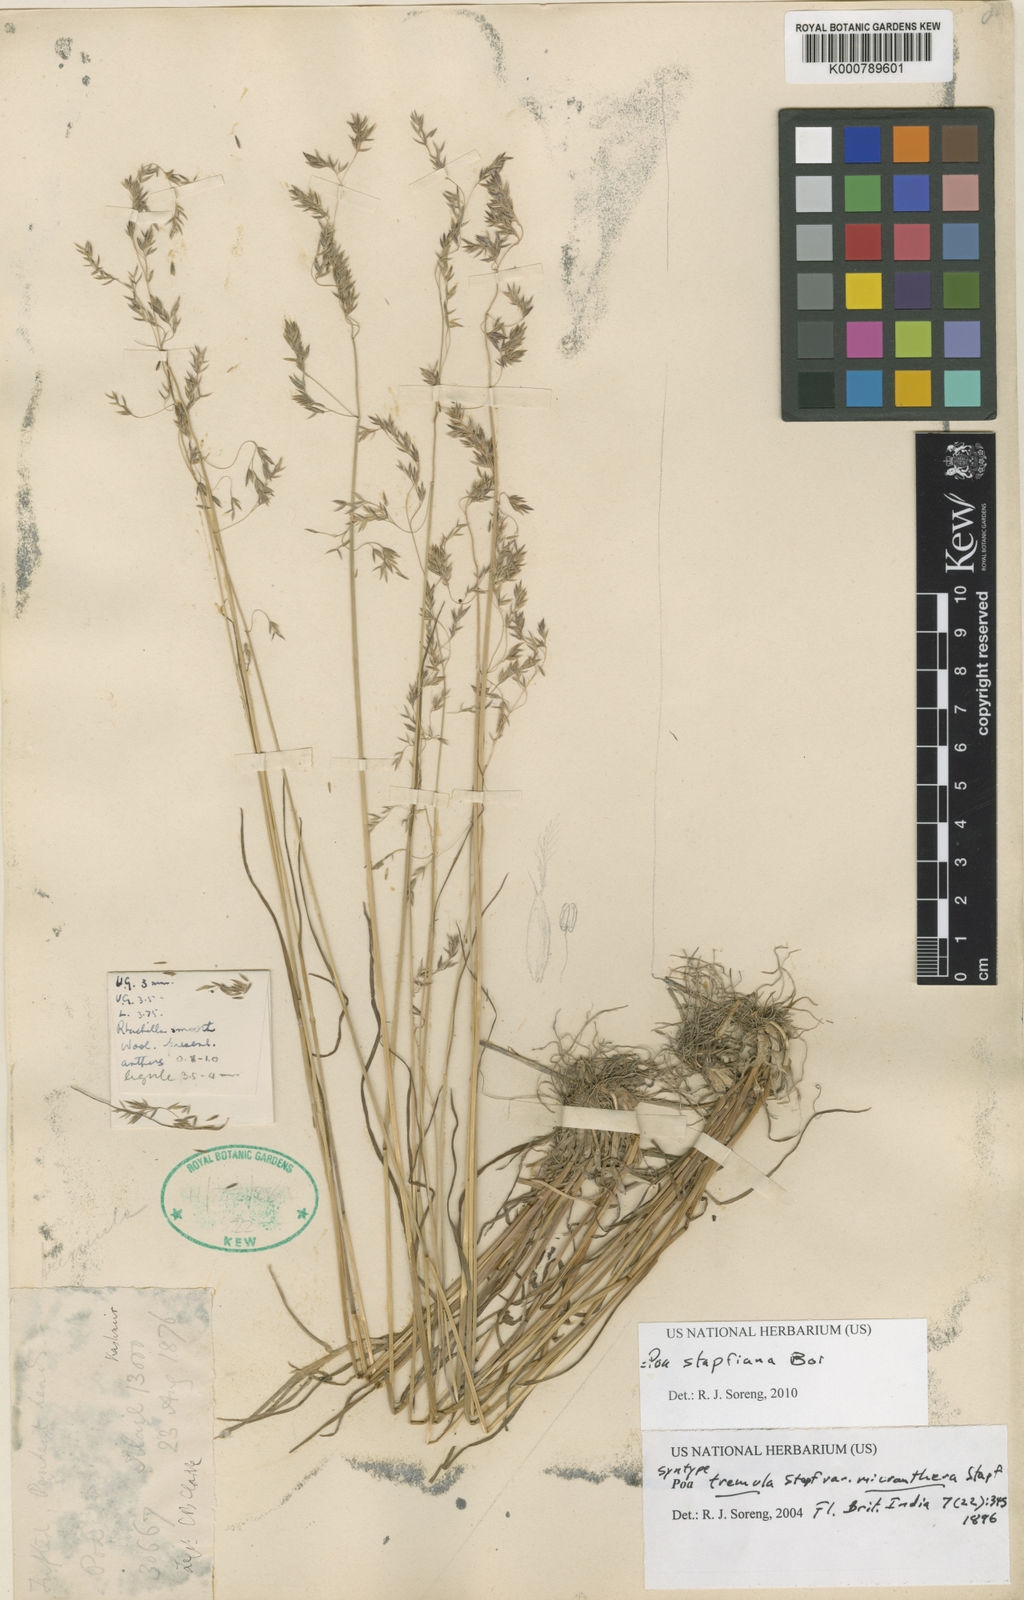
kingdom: Plantae
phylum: Tracheophyta
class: Liliopsida
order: Poales
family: Poaceae
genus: Poa
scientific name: Poa stapfiana
